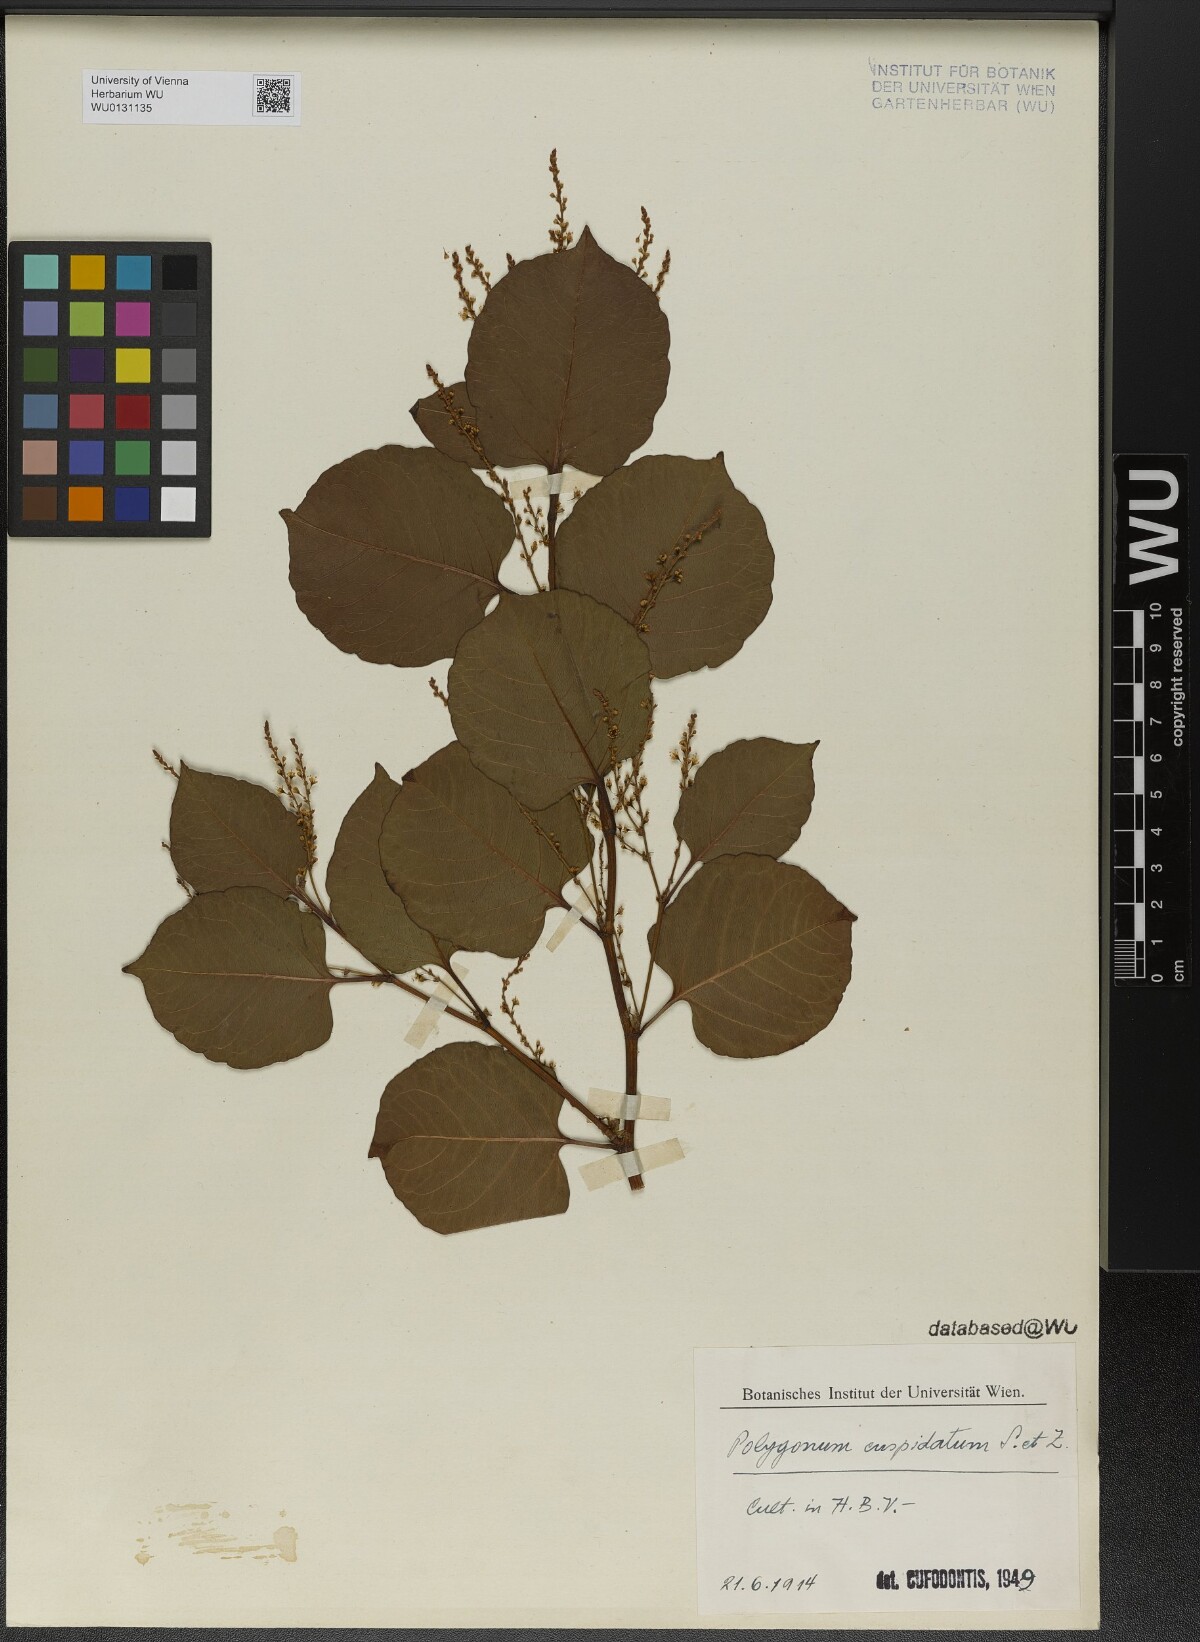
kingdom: Plantae
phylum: Tracheophyta
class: Magnoliopsida
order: Caryophyllales
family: Polygonaceae
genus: Reynoutria
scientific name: Reynoutria japonica
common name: Japanese knotweed
